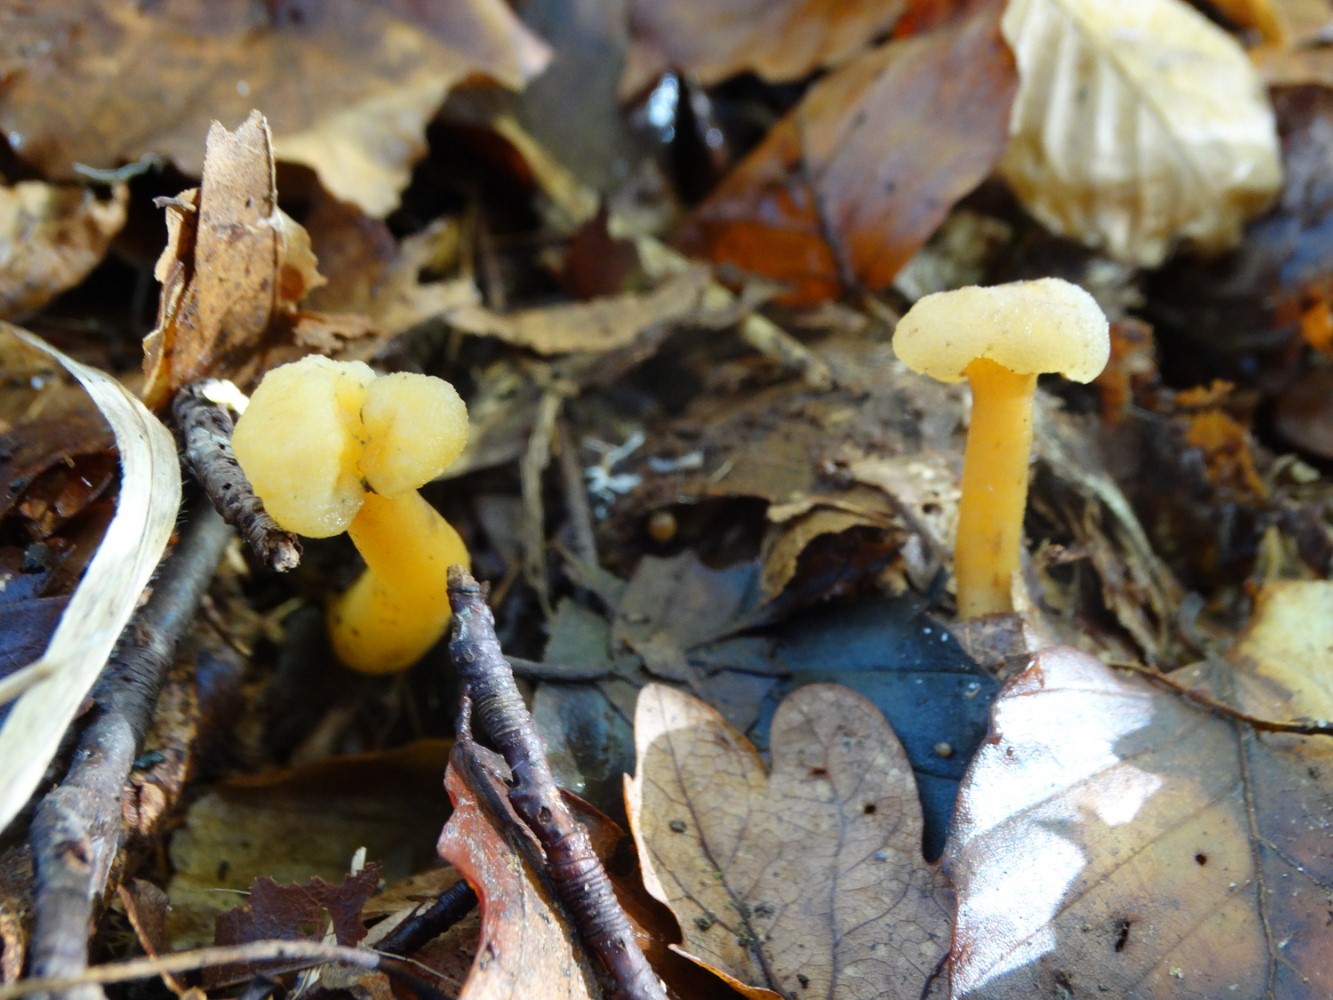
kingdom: Fungi
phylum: Ascomycota
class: Leotiomycetes
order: Leotiales
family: Leotiaceae
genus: Leotia
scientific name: Leotia lubrica
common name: ravsvamp
